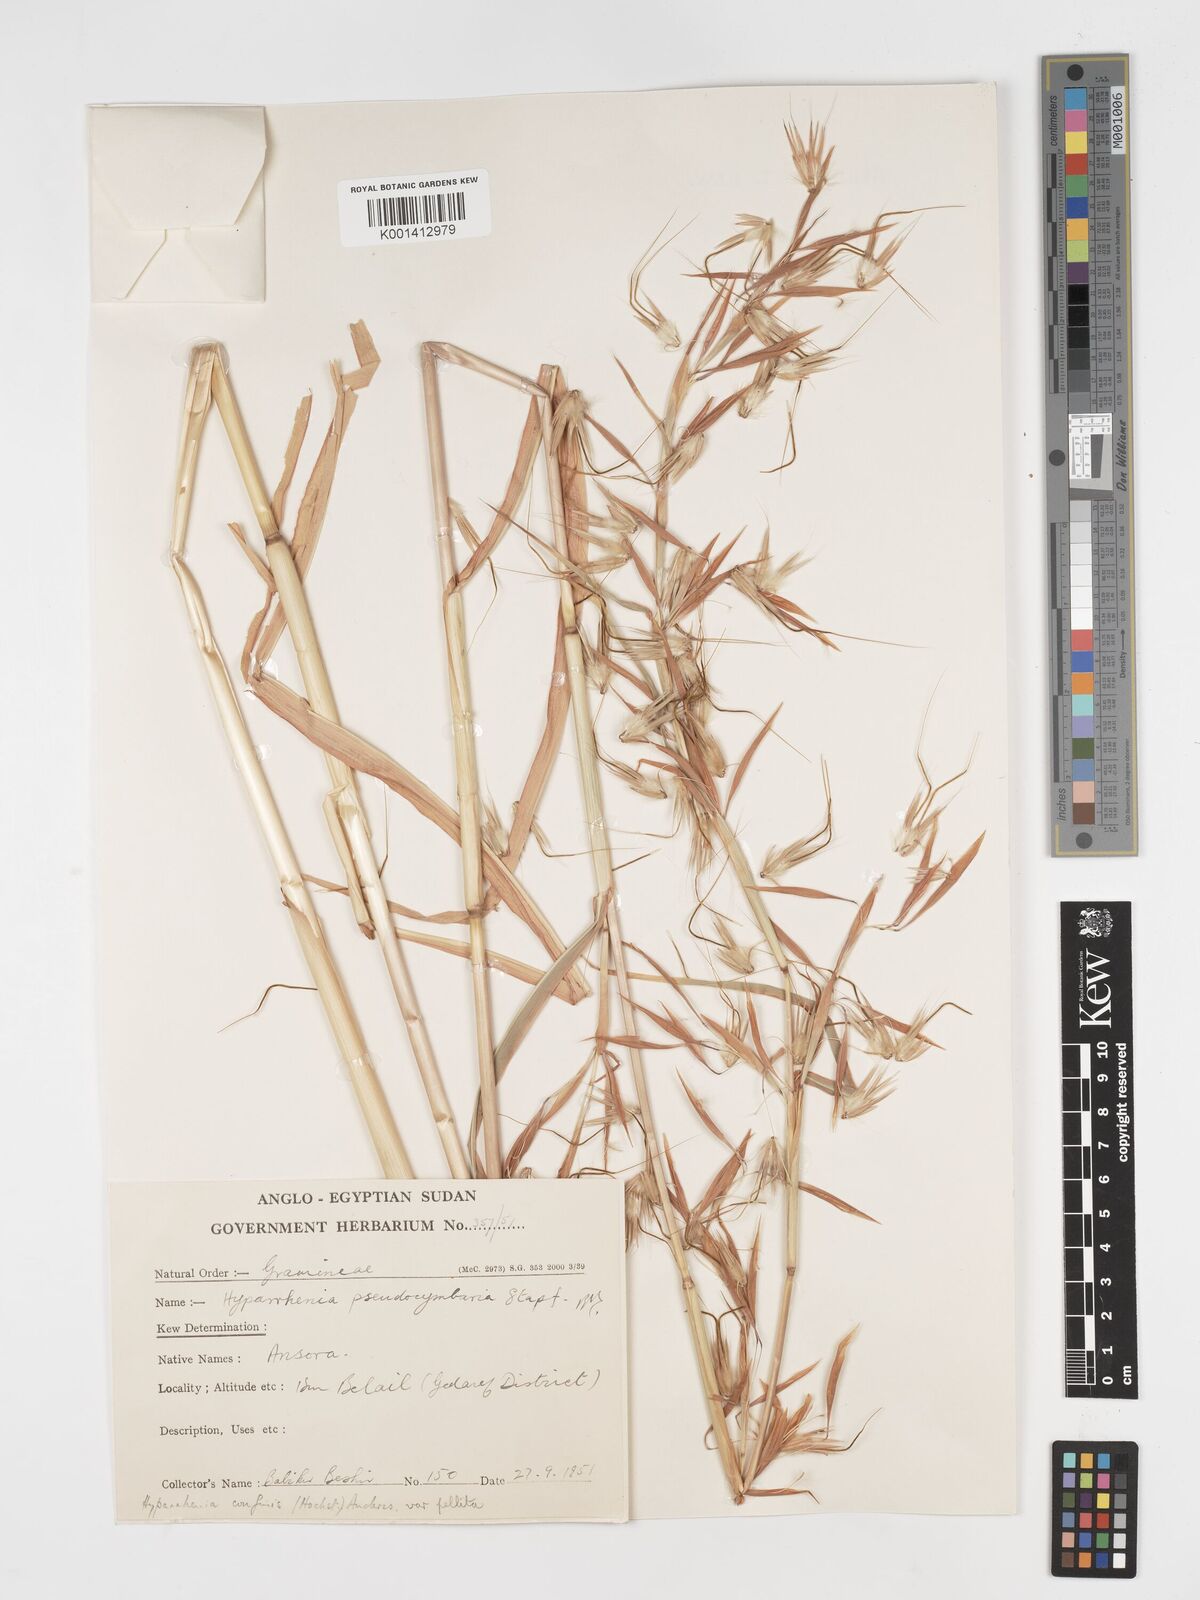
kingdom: Plantae
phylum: Tracheophyta
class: Liliopsida
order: Poales
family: Poaceae
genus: Hyparrhenia
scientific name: Hyparrhenia confinis
